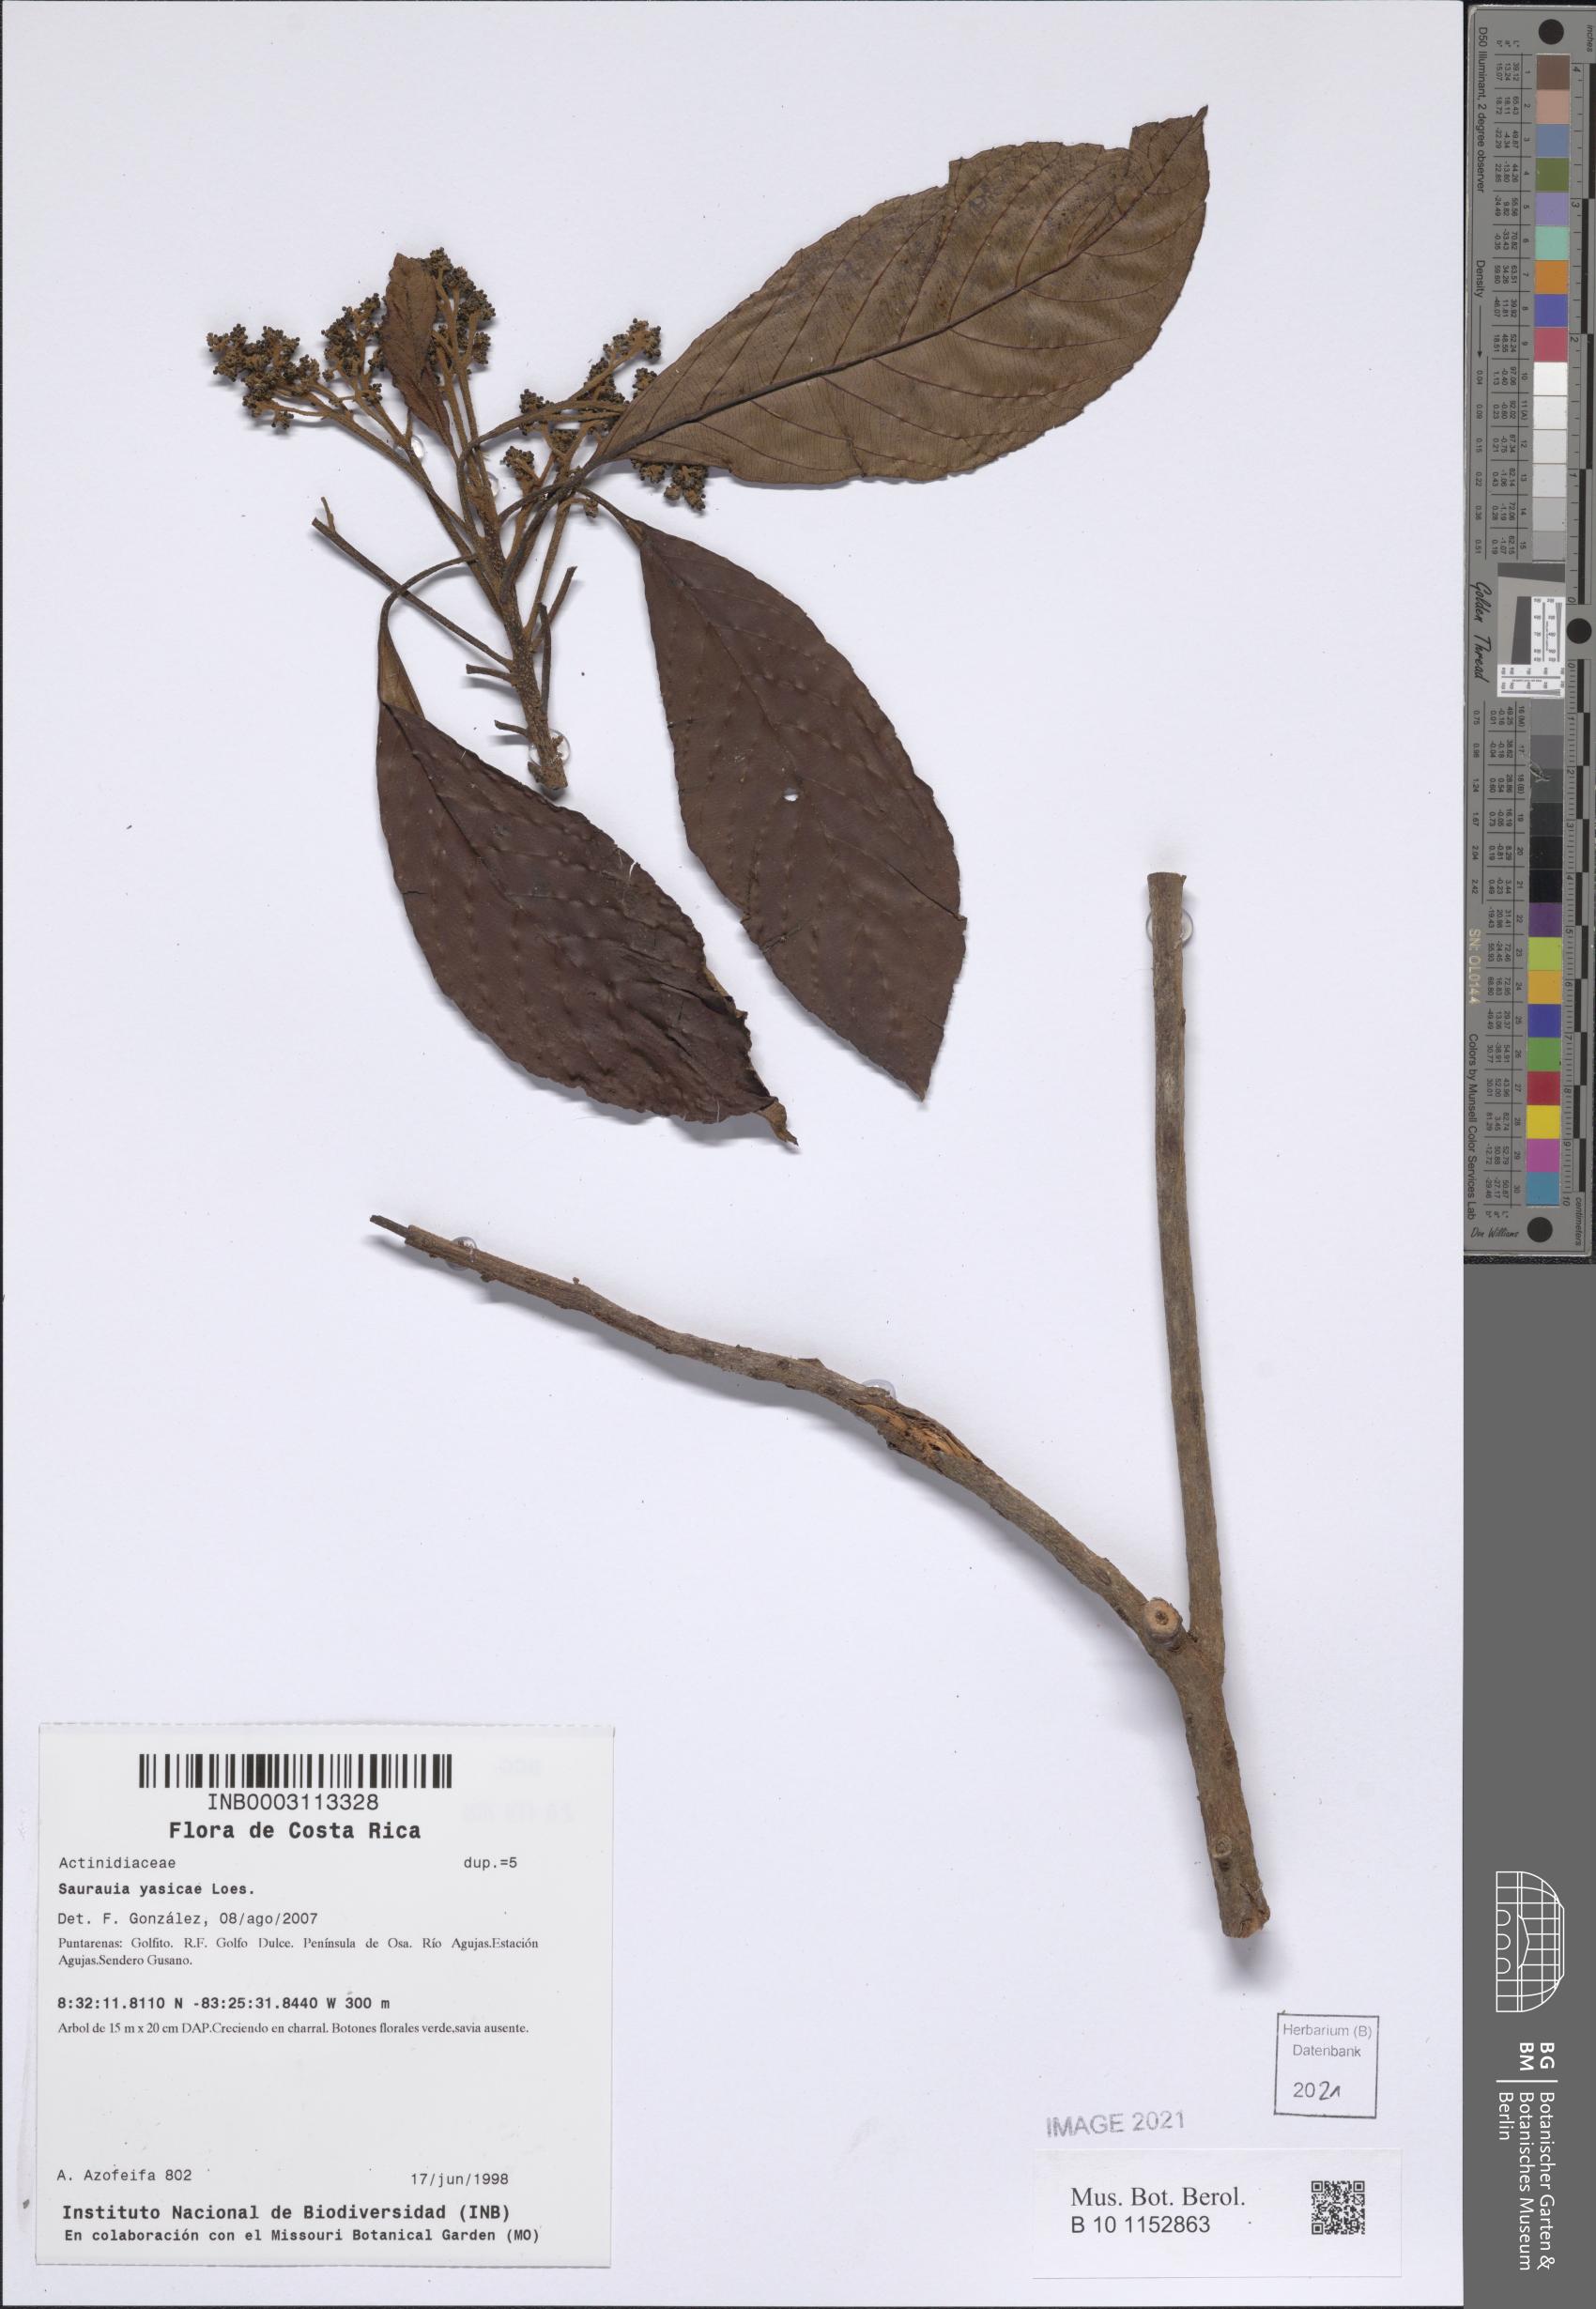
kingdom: Plantae
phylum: Tracheophyta
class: Magnoliopsida
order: Ericales
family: Actinidiaceae
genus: Saurauia
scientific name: Saurauia yasicae
